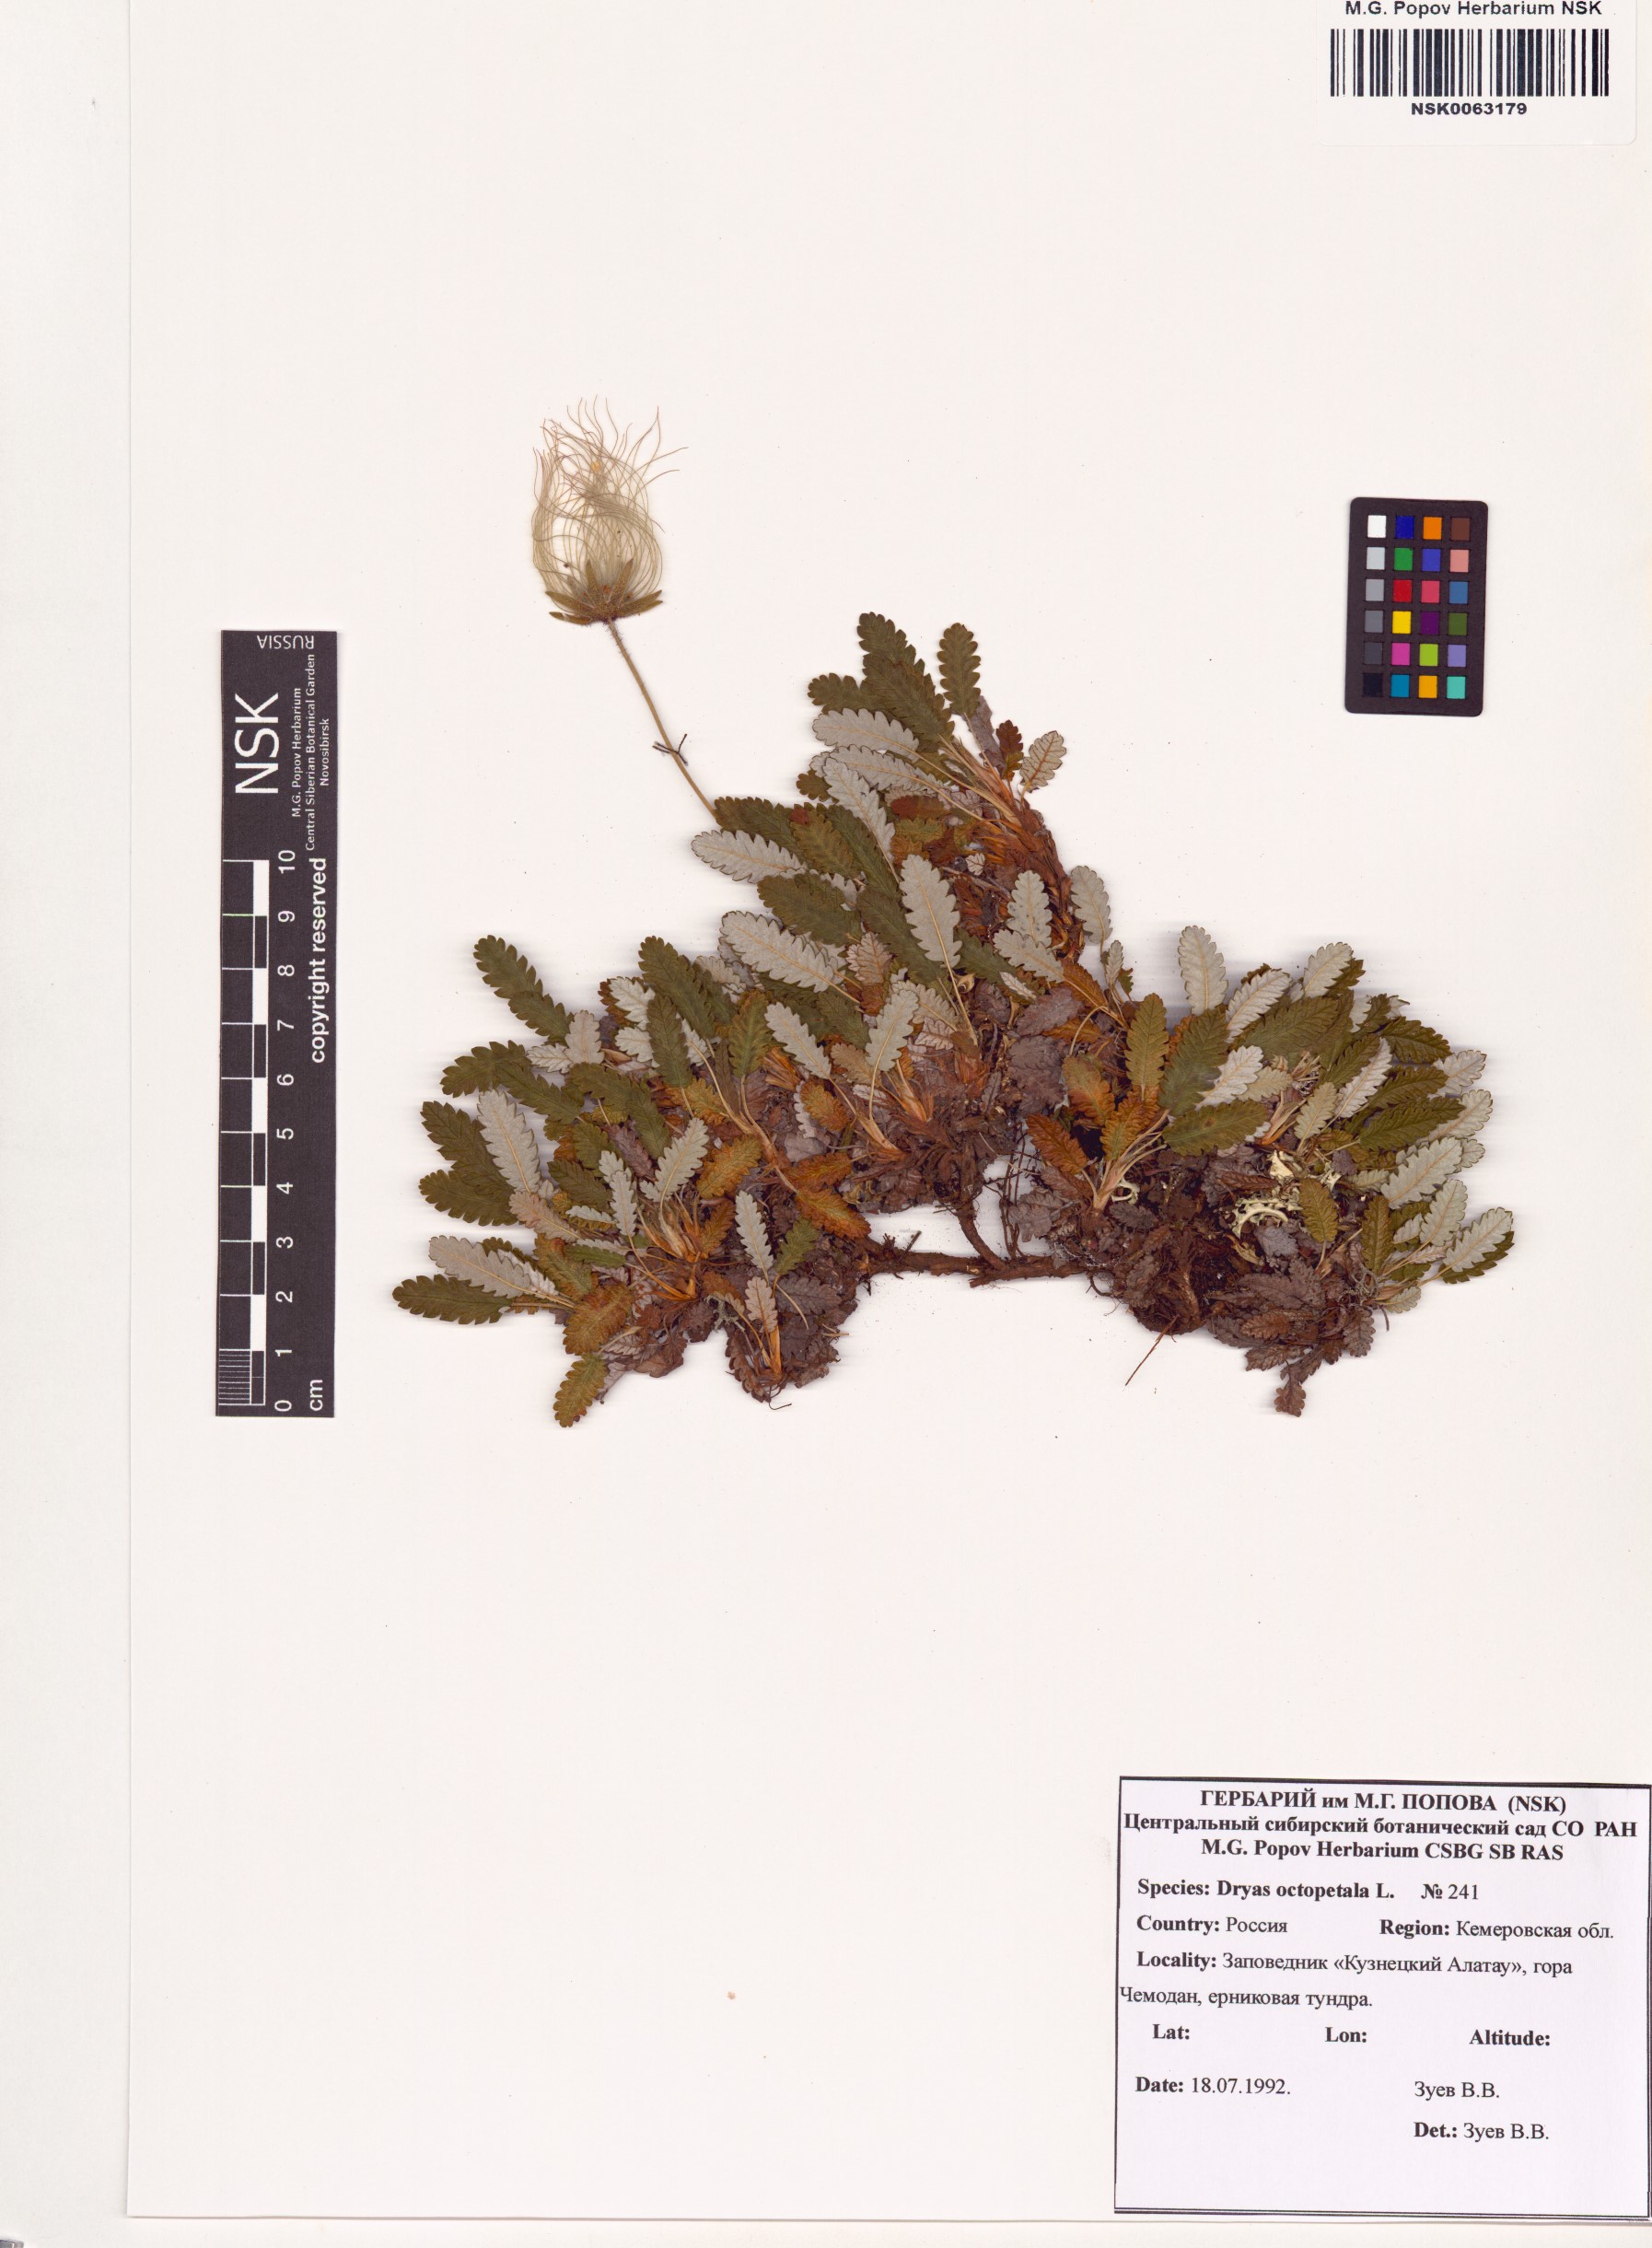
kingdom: Plantae
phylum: Tracheophyta
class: Magnoliopsida
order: Rosales
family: Rosaceae
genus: Dryas
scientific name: Dryas octopetala
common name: Eight-petal mountain-avens
